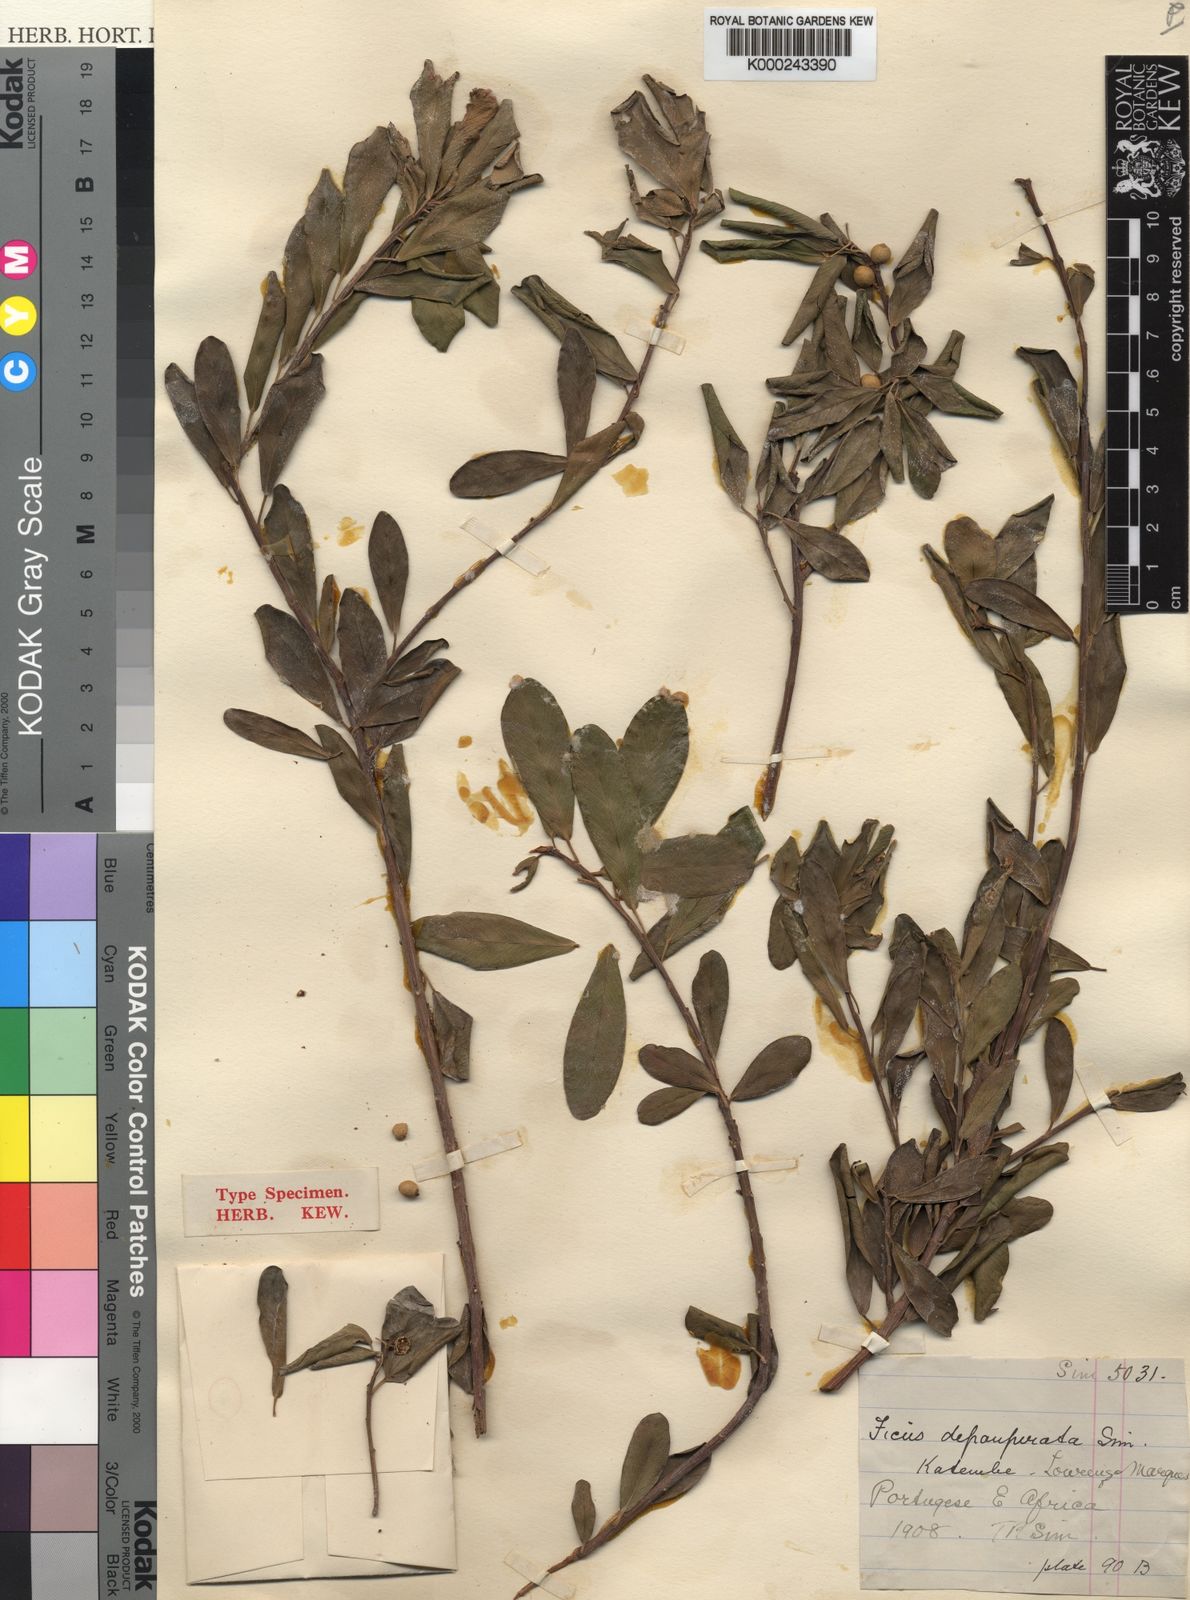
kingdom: Plantae
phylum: Tracheophyta
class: Magnoliopsida
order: Rosales
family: Moraceae
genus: Ficus
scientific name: Ficus lingua
